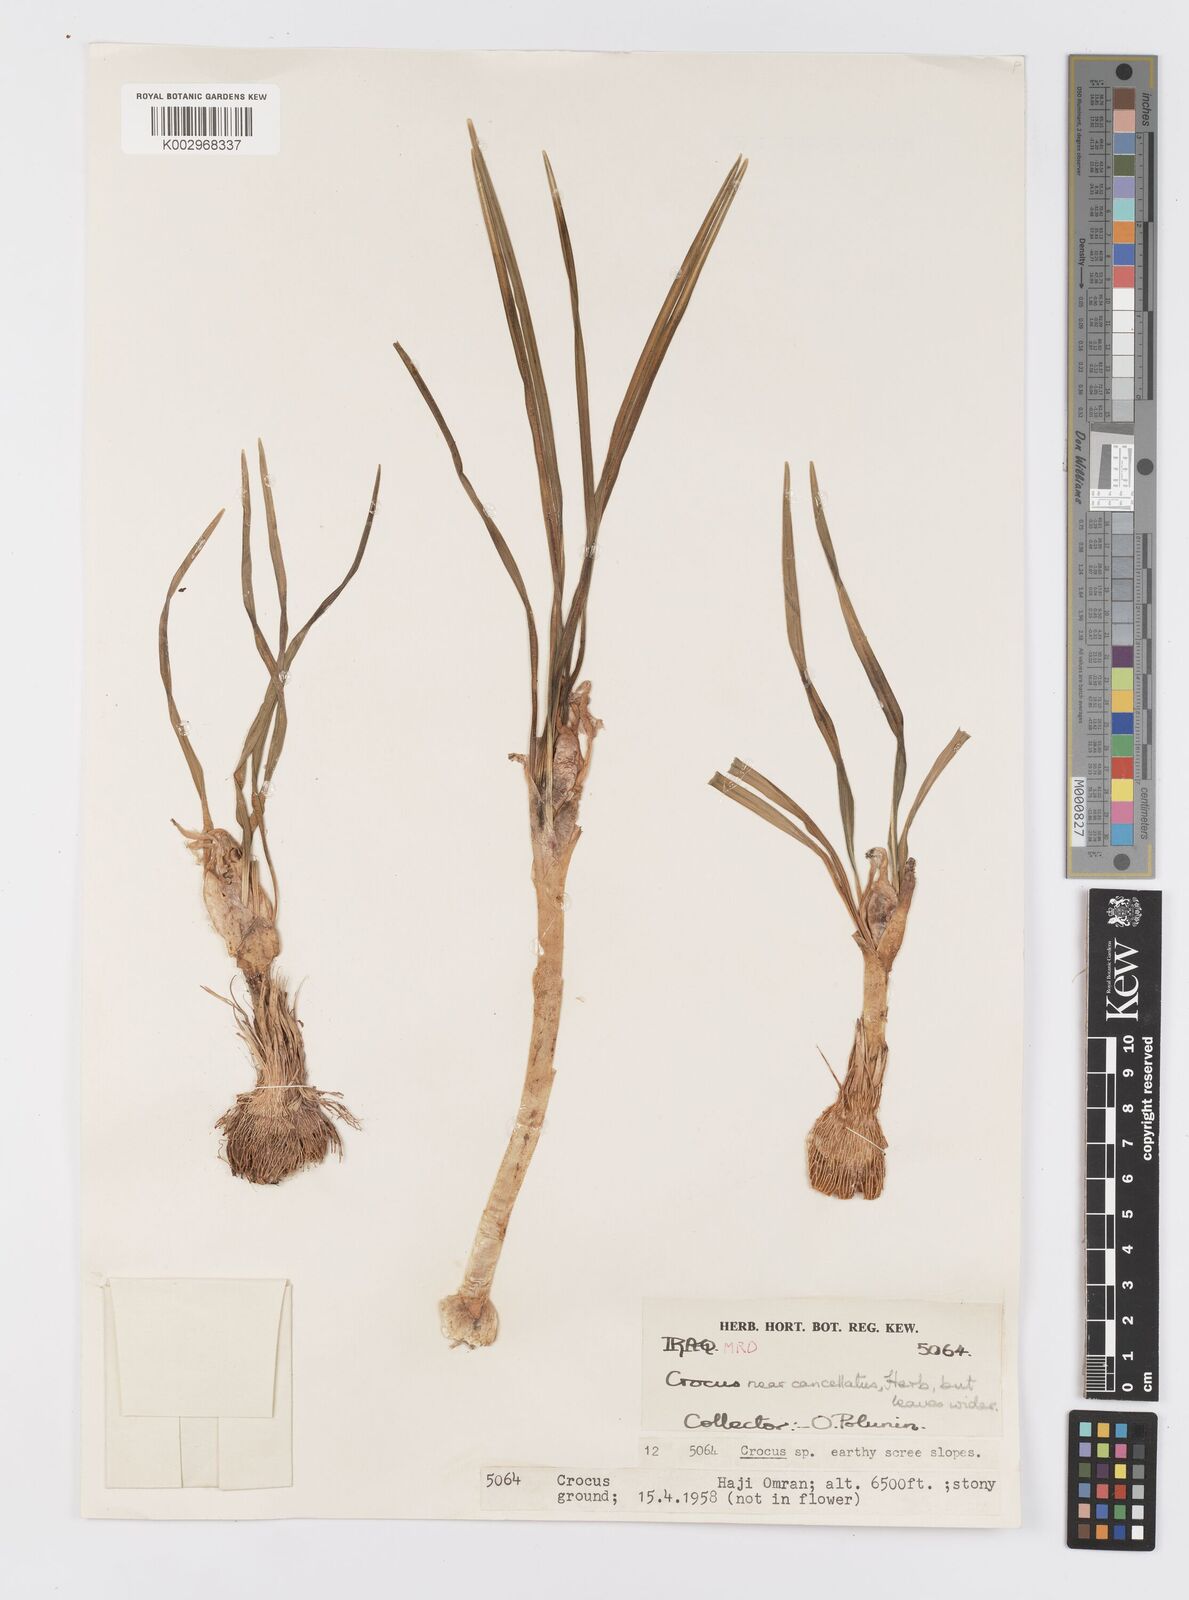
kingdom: Plantae
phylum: Tracheophyta
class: Liliopsida
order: Asparagales
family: Iridaceae
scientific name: Iridaceae
